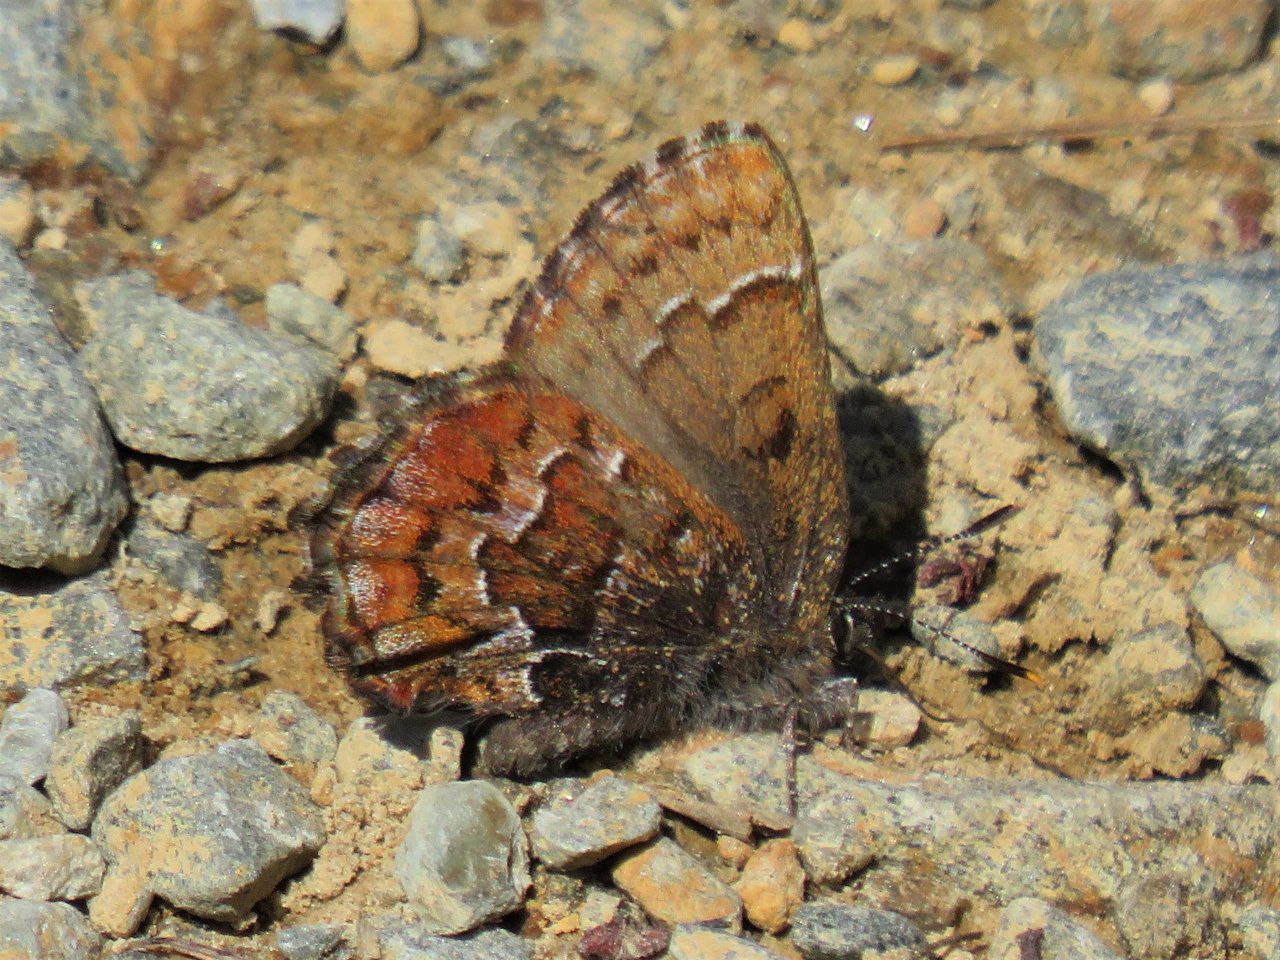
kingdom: Animalia
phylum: Arthropoda
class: Insecta
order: Lepidoptera
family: Lycaenidae
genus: Incisalia
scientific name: Incisalia niphon
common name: Eastern Pine Elfin
